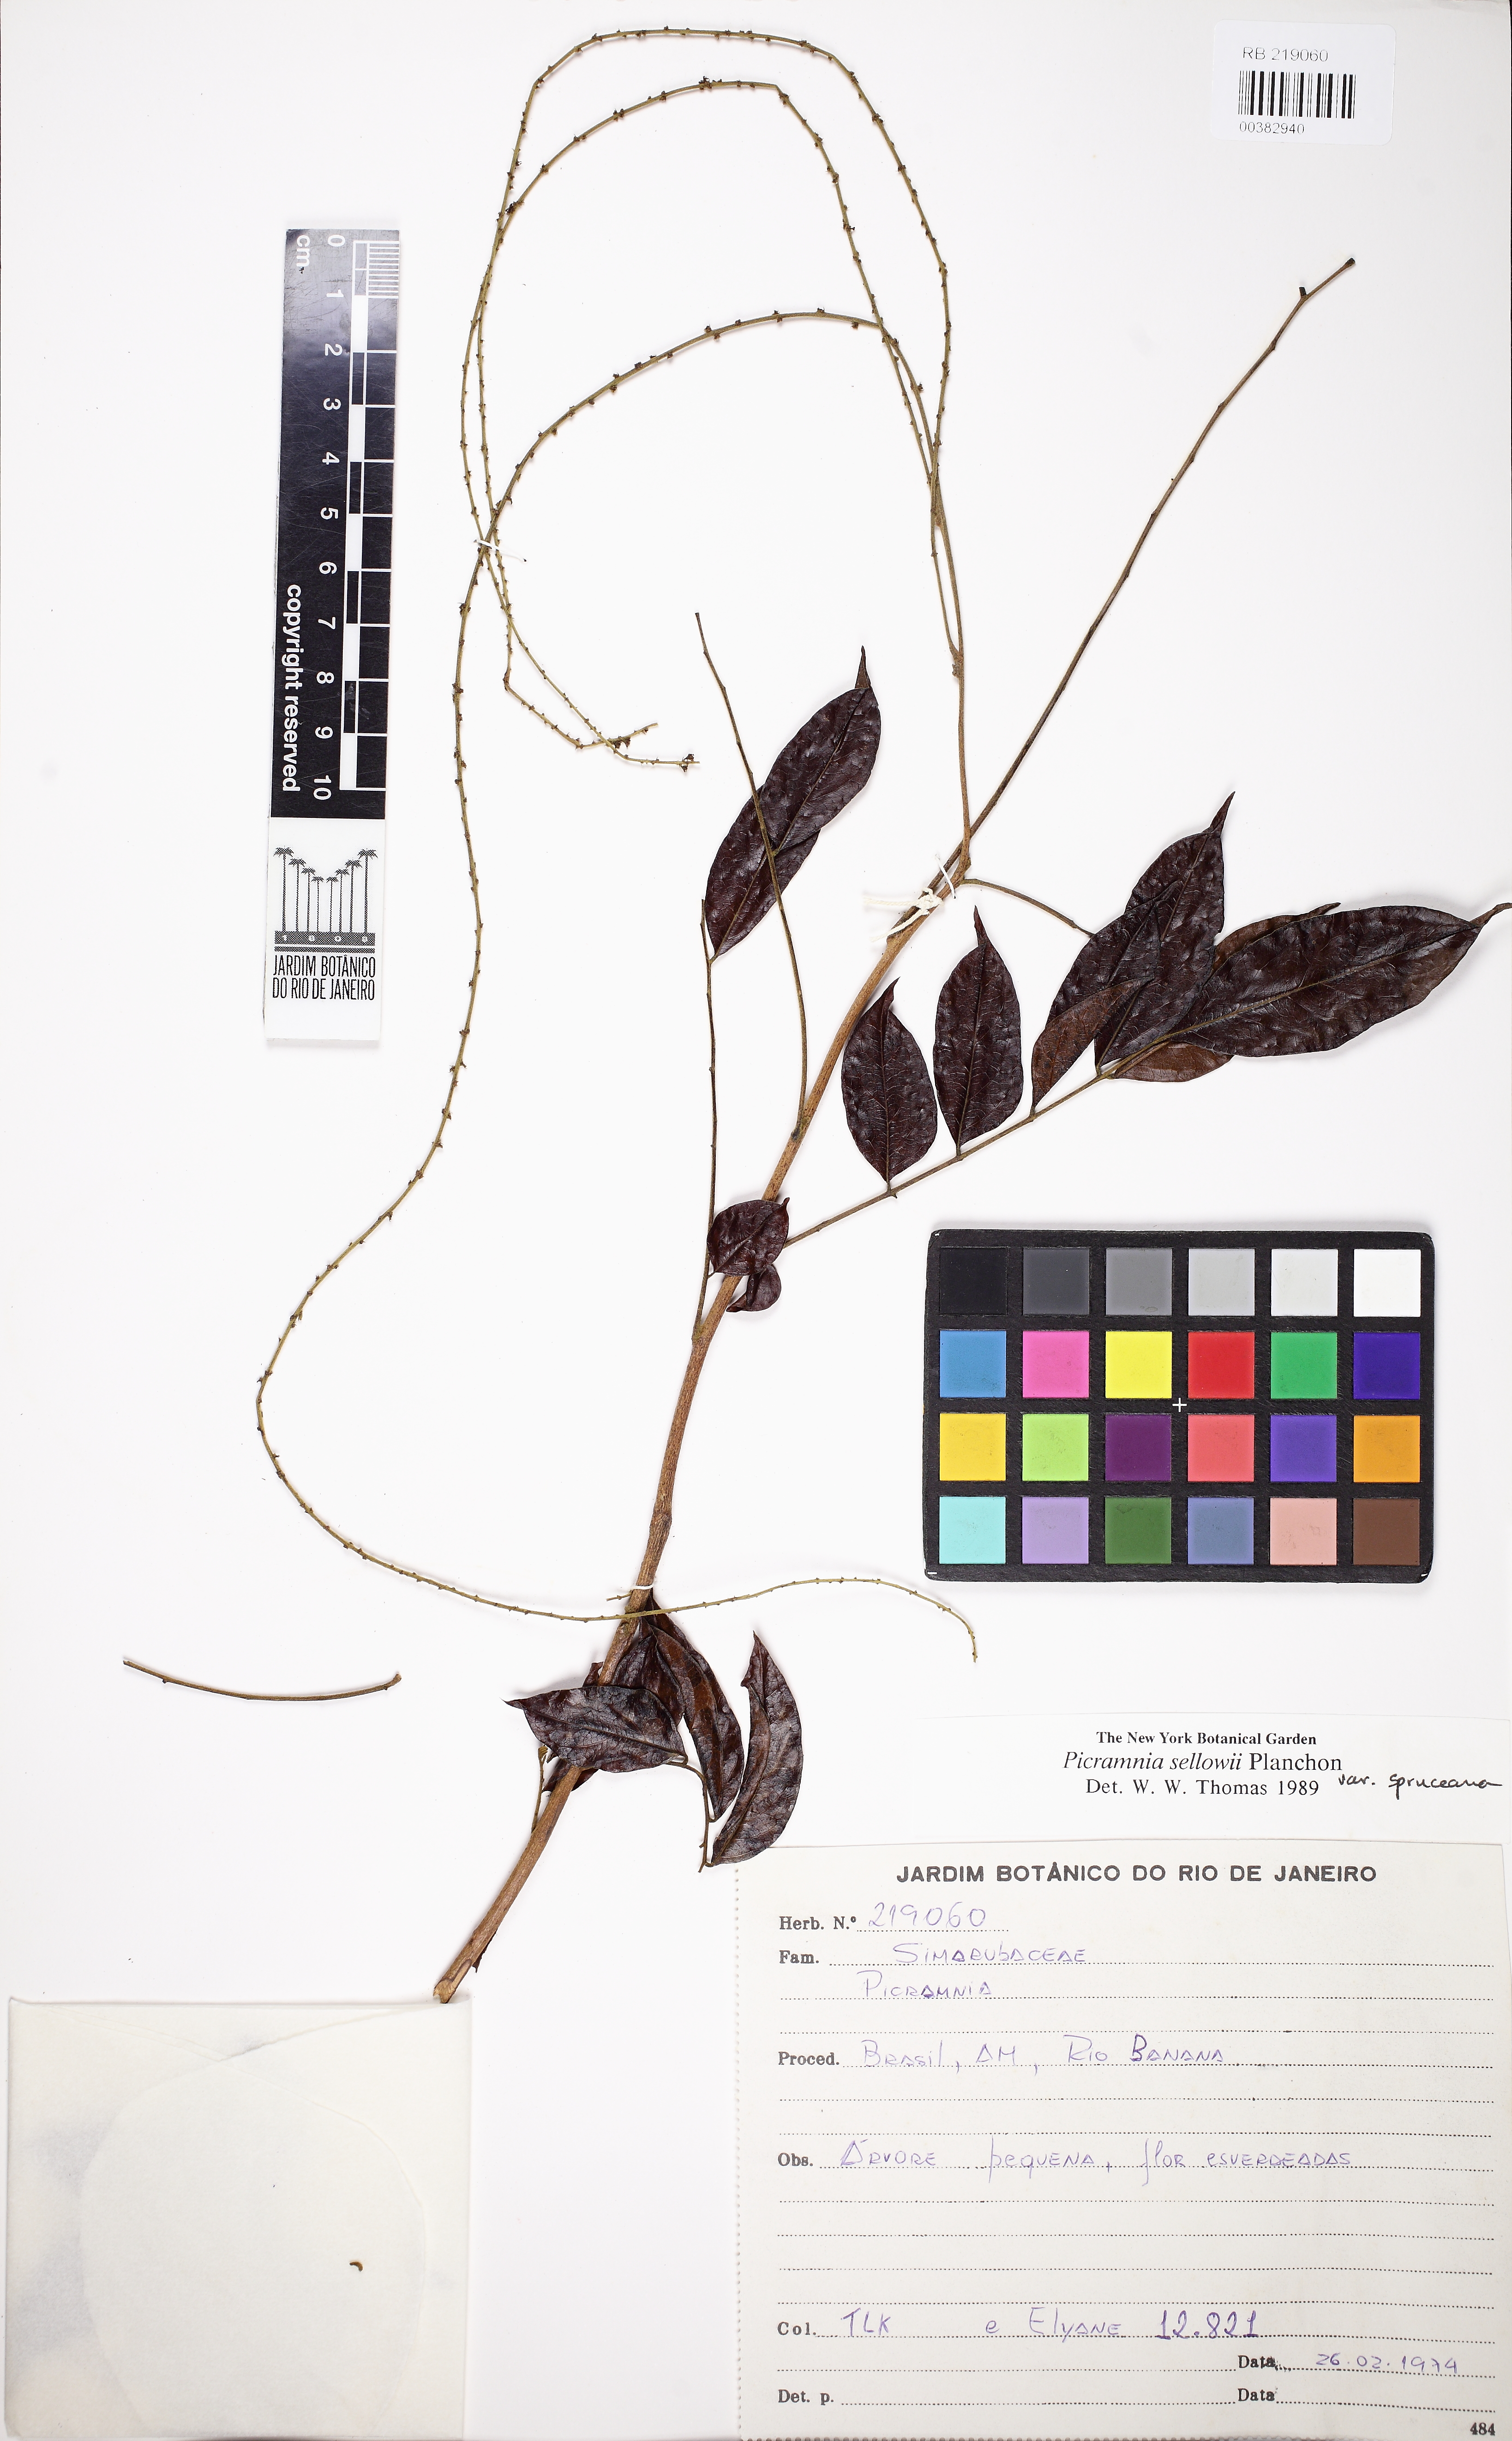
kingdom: Plantae
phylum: Tracheophyta
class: Magnoliopsida
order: Picramniales
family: Picramniaceae
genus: Picramnia
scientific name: Picramnia spruceana
